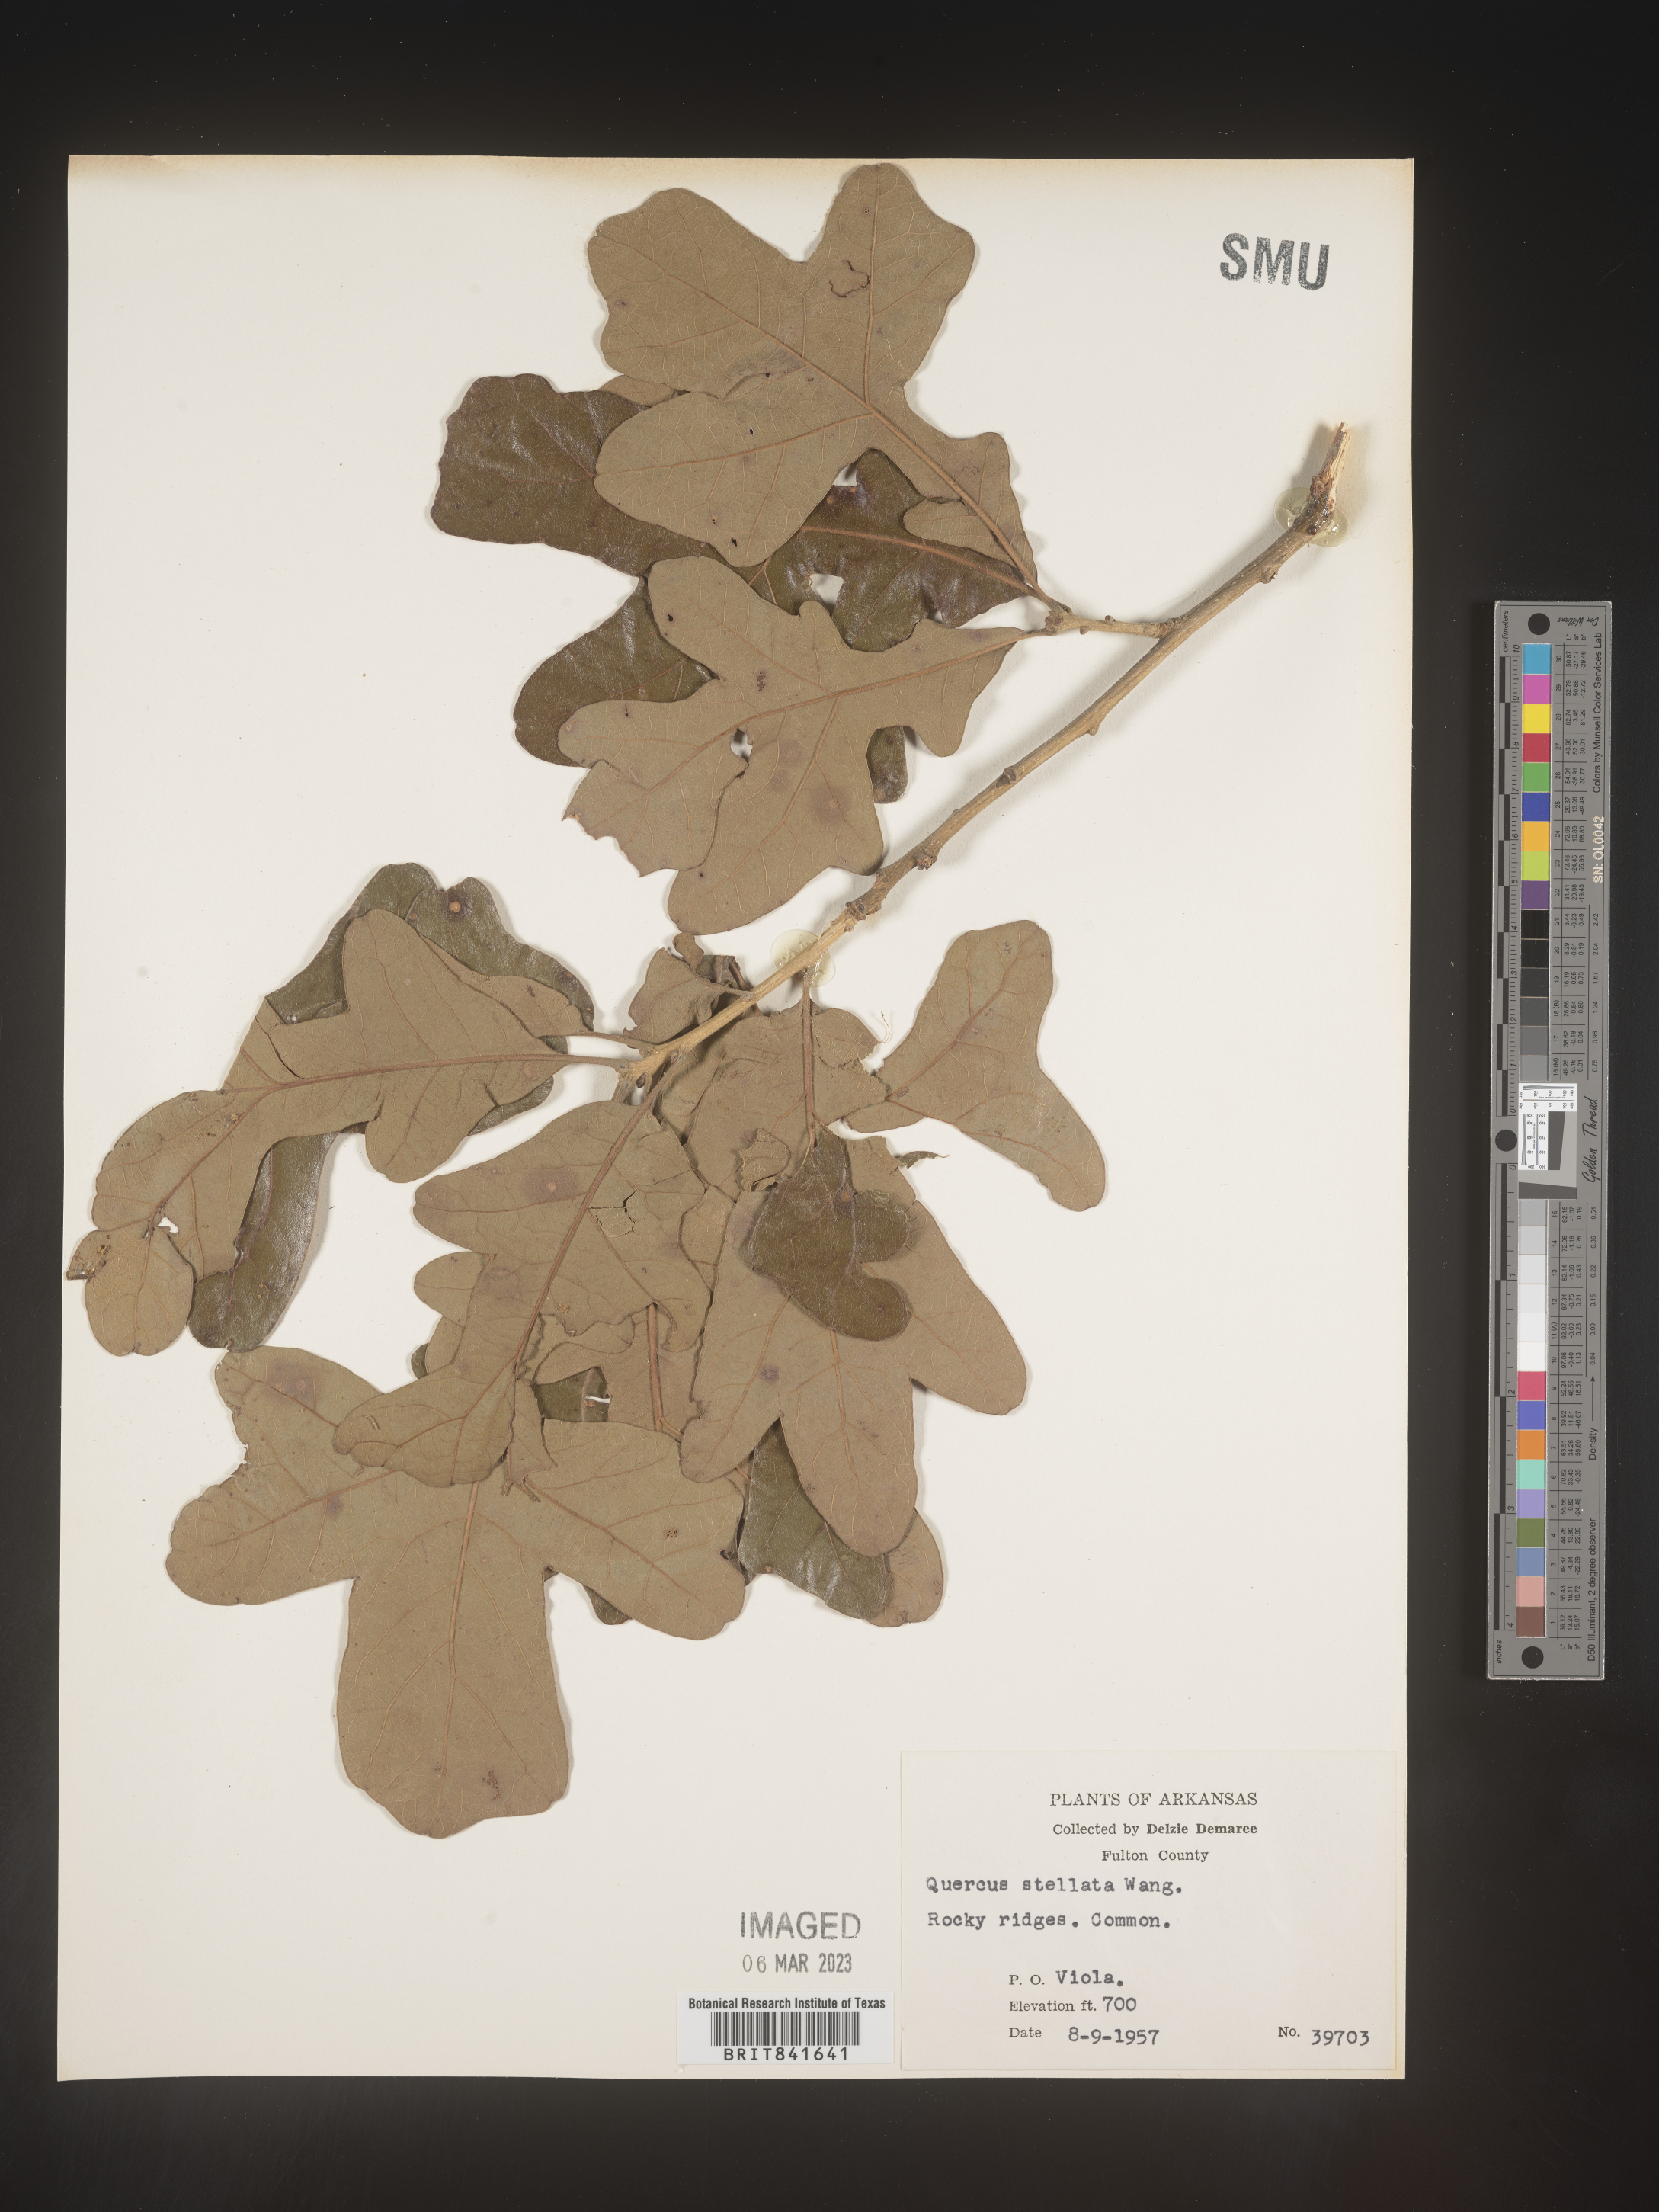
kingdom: Plantae
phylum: Tracheophyta
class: Magnoliopsida
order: Fagales
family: Fagaceae
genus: Quercus
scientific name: Quercus stellata
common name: Post oak
